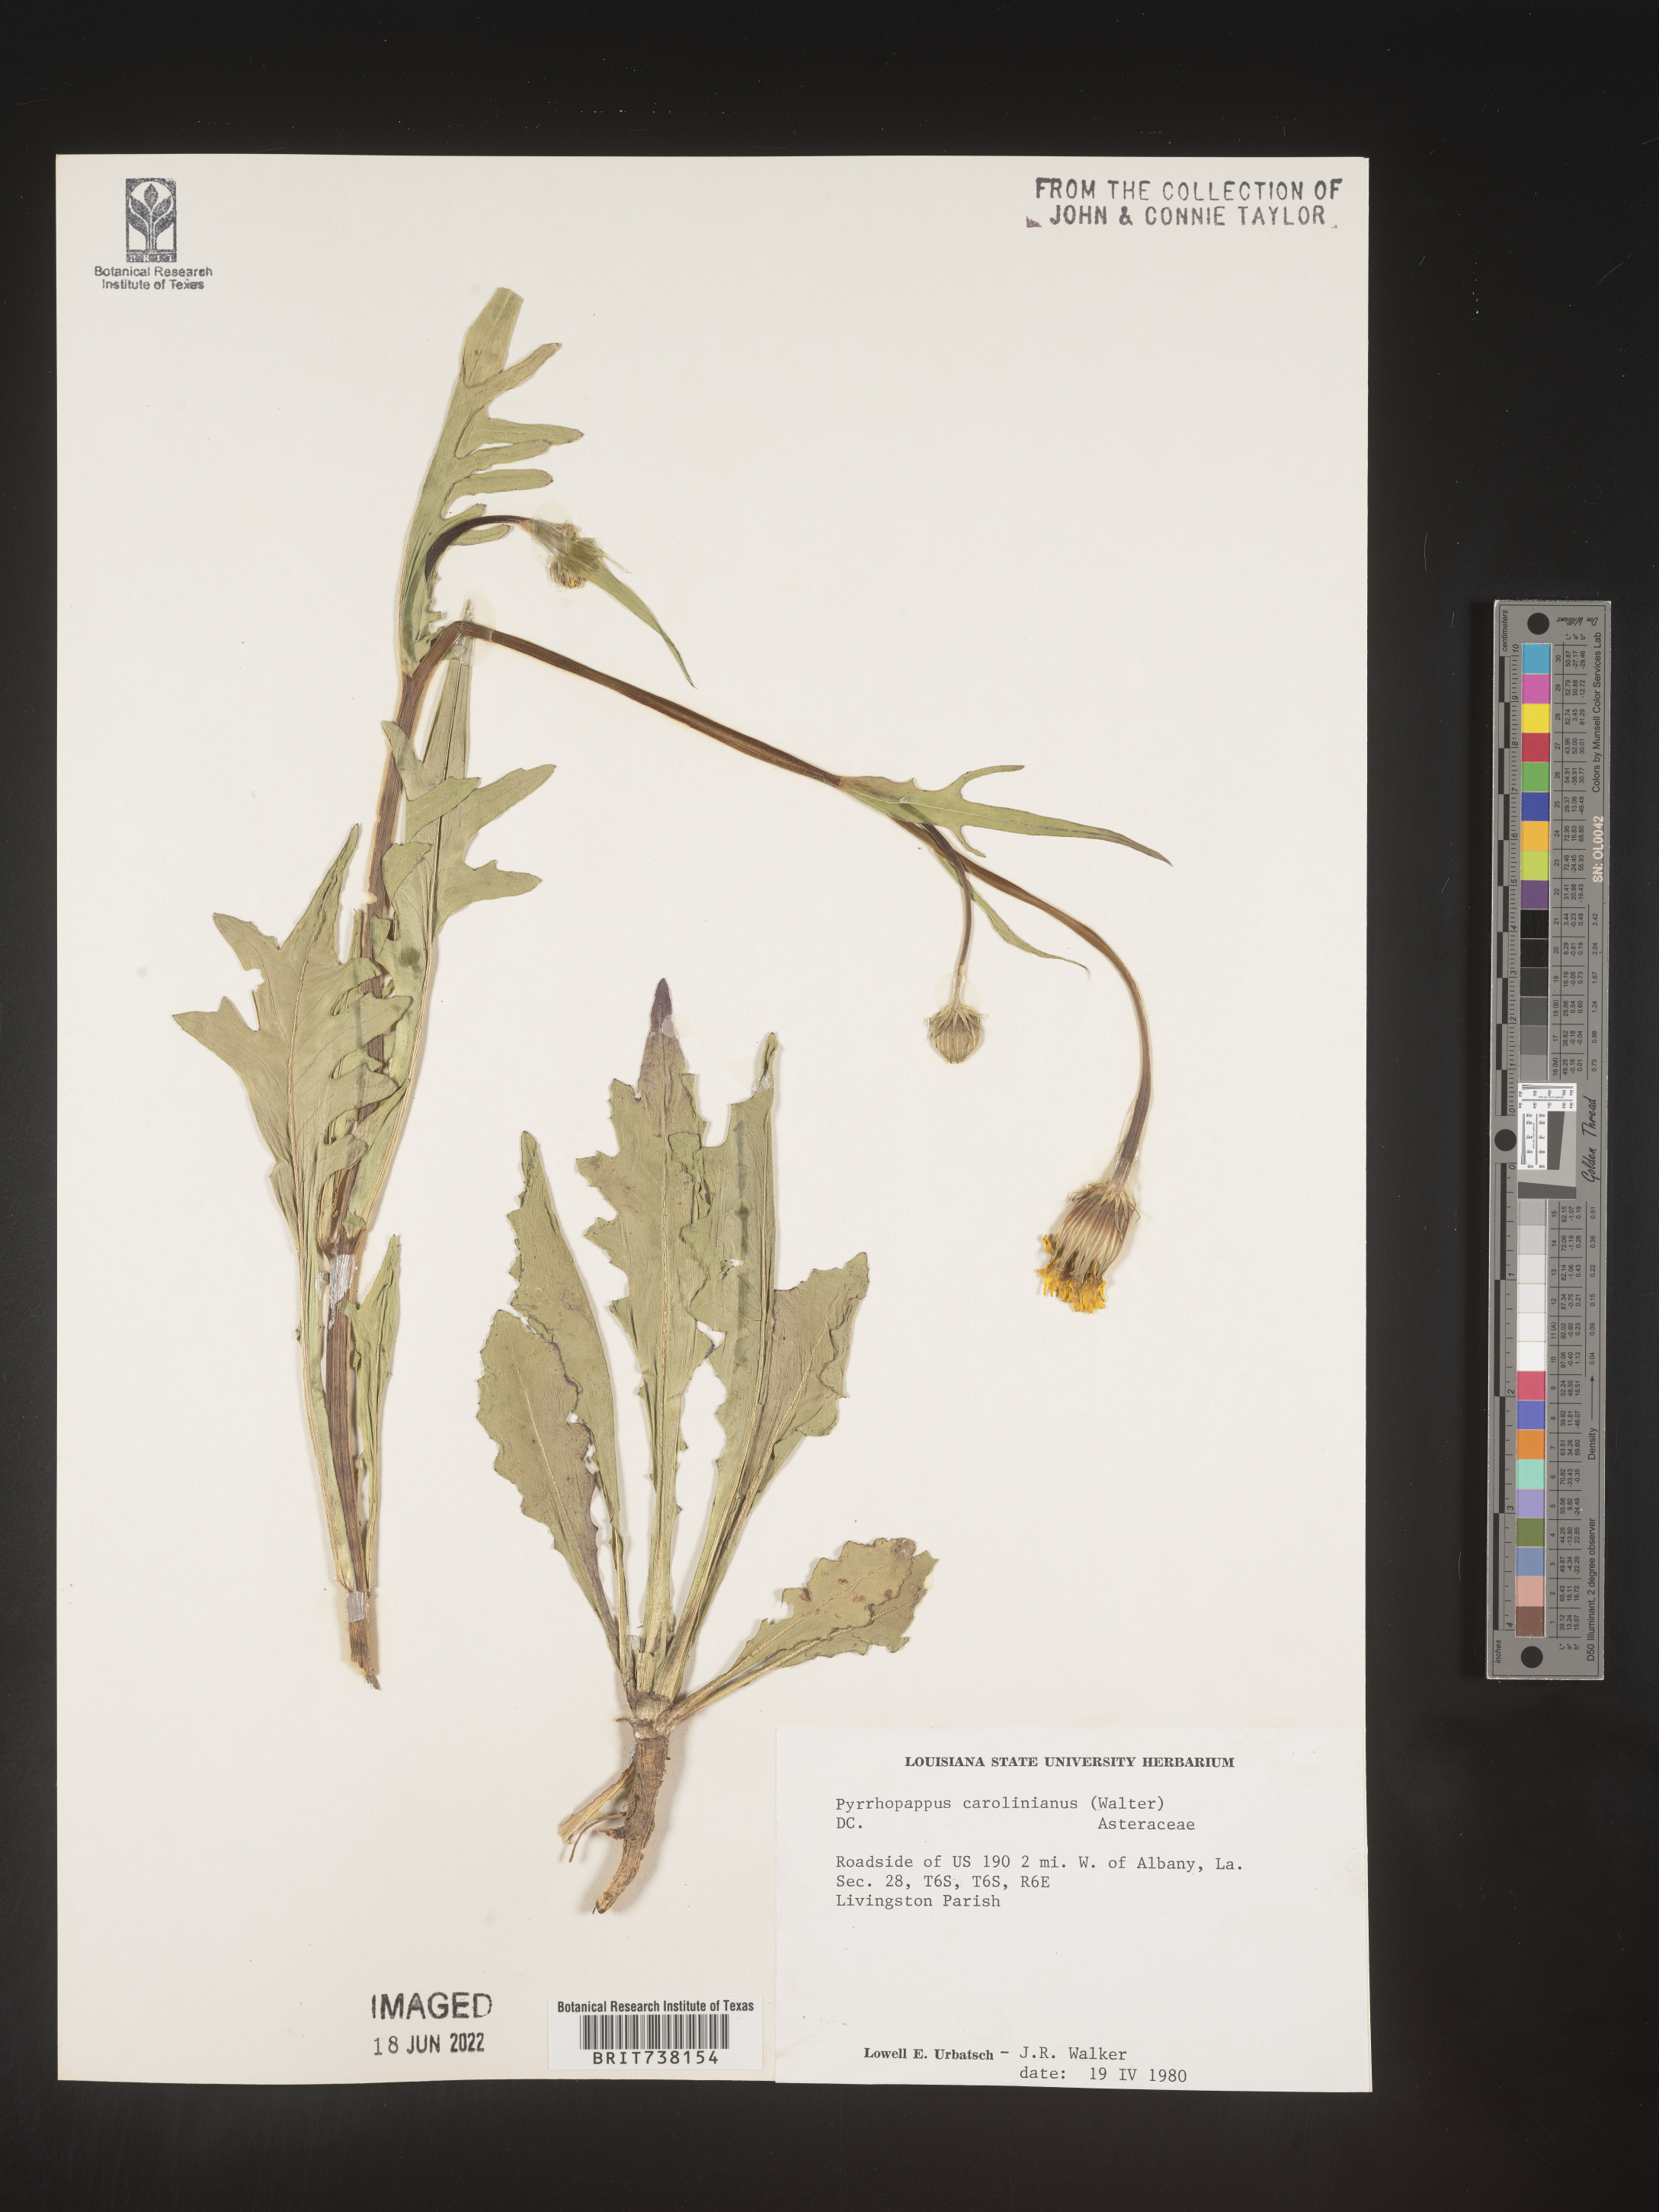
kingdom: Plantae
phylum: Tracheophyta
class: Magnoliopsida
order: Asterales
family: Asteraceae
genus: Pyrrhopappus
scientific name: Pyrrhopappus carolinianus
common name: Carolina desert-chicory
